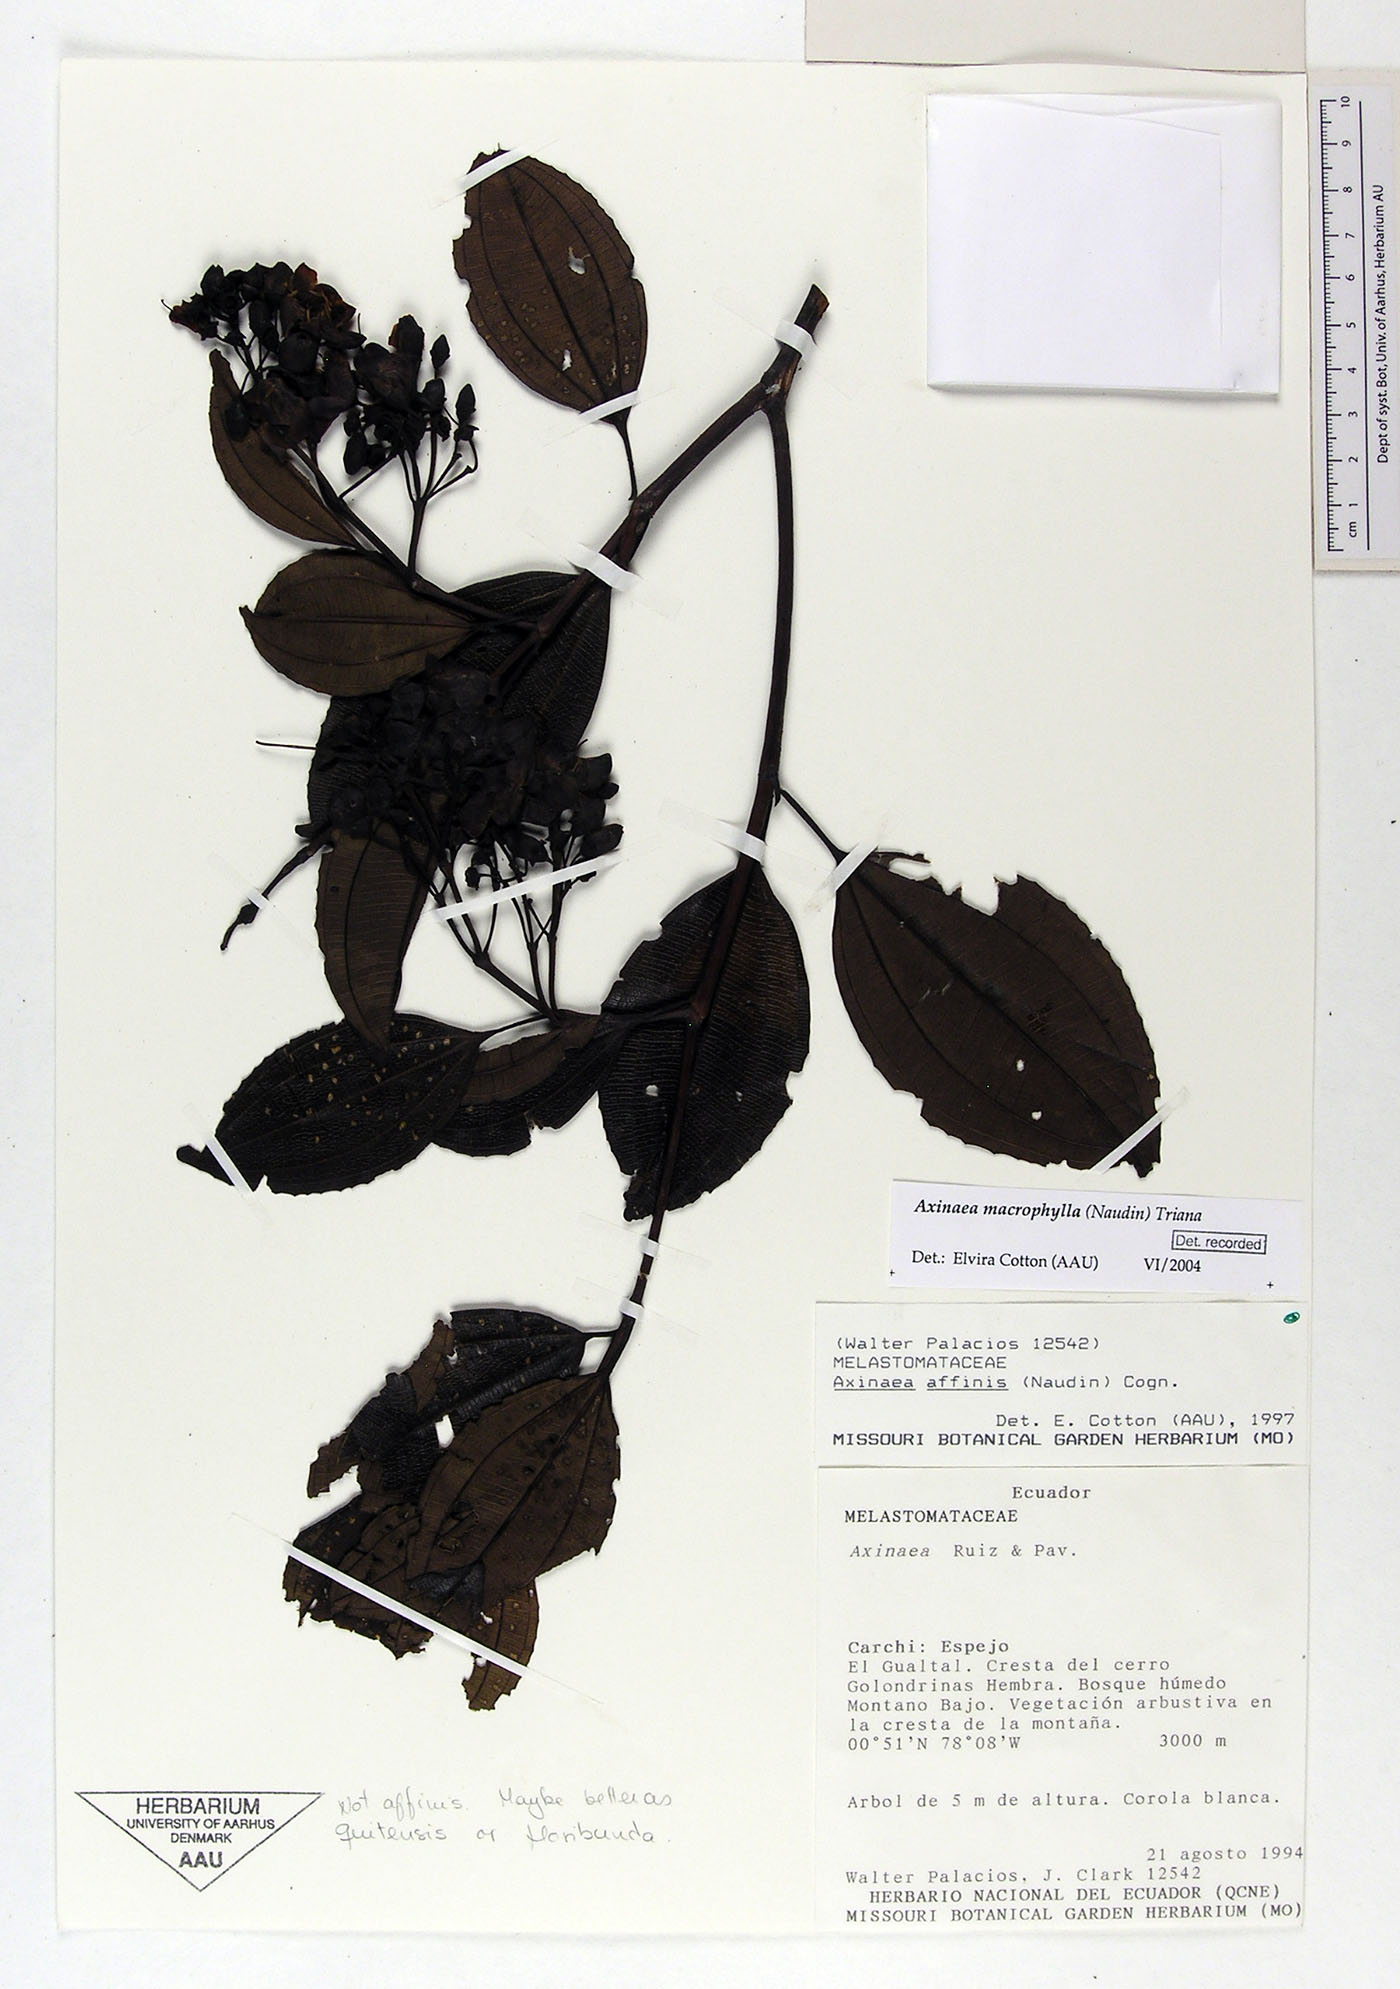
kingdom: Plantae
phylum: Tracheophyta
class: Magnoliopsida
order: Myrtales
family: Melastomataceae
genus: Axinaea
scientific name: Axinaea quitensis
